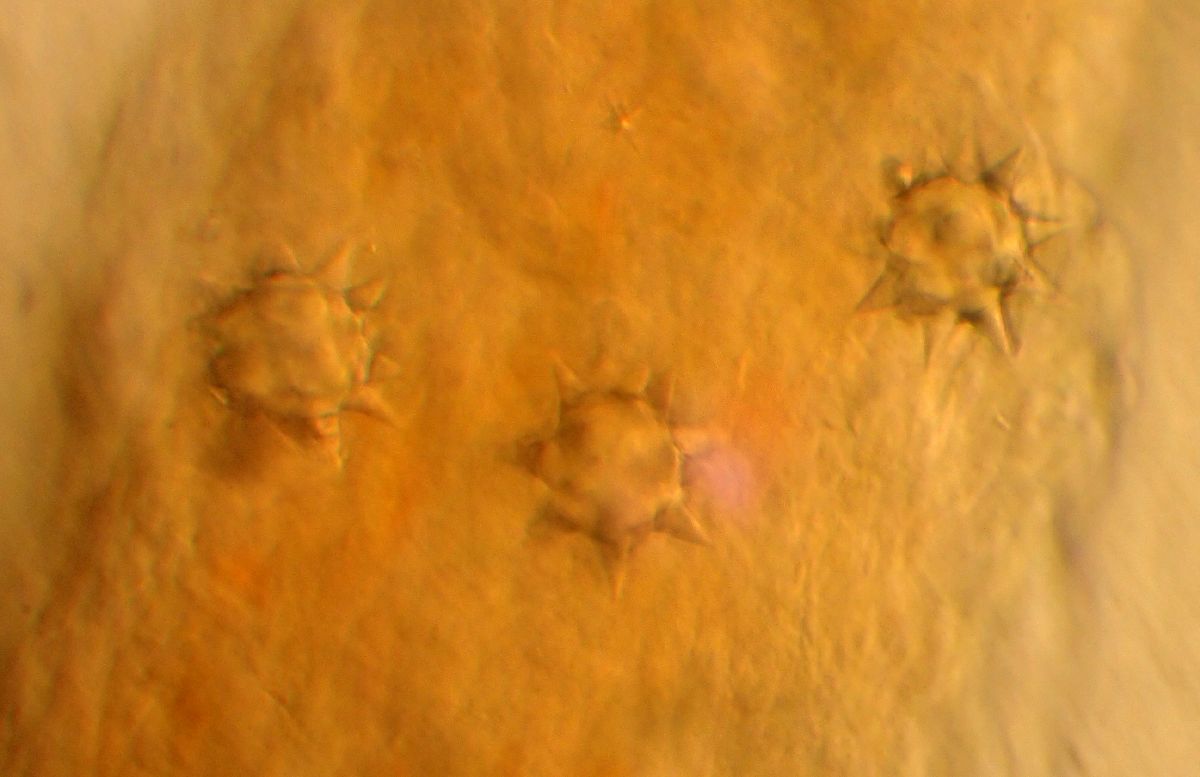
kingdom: Animalia
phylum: Echinodermata
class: Holothuroidea
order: Holothuriida
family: Holothuriidae
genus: Holothuria
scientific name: Holothuria sanctori
